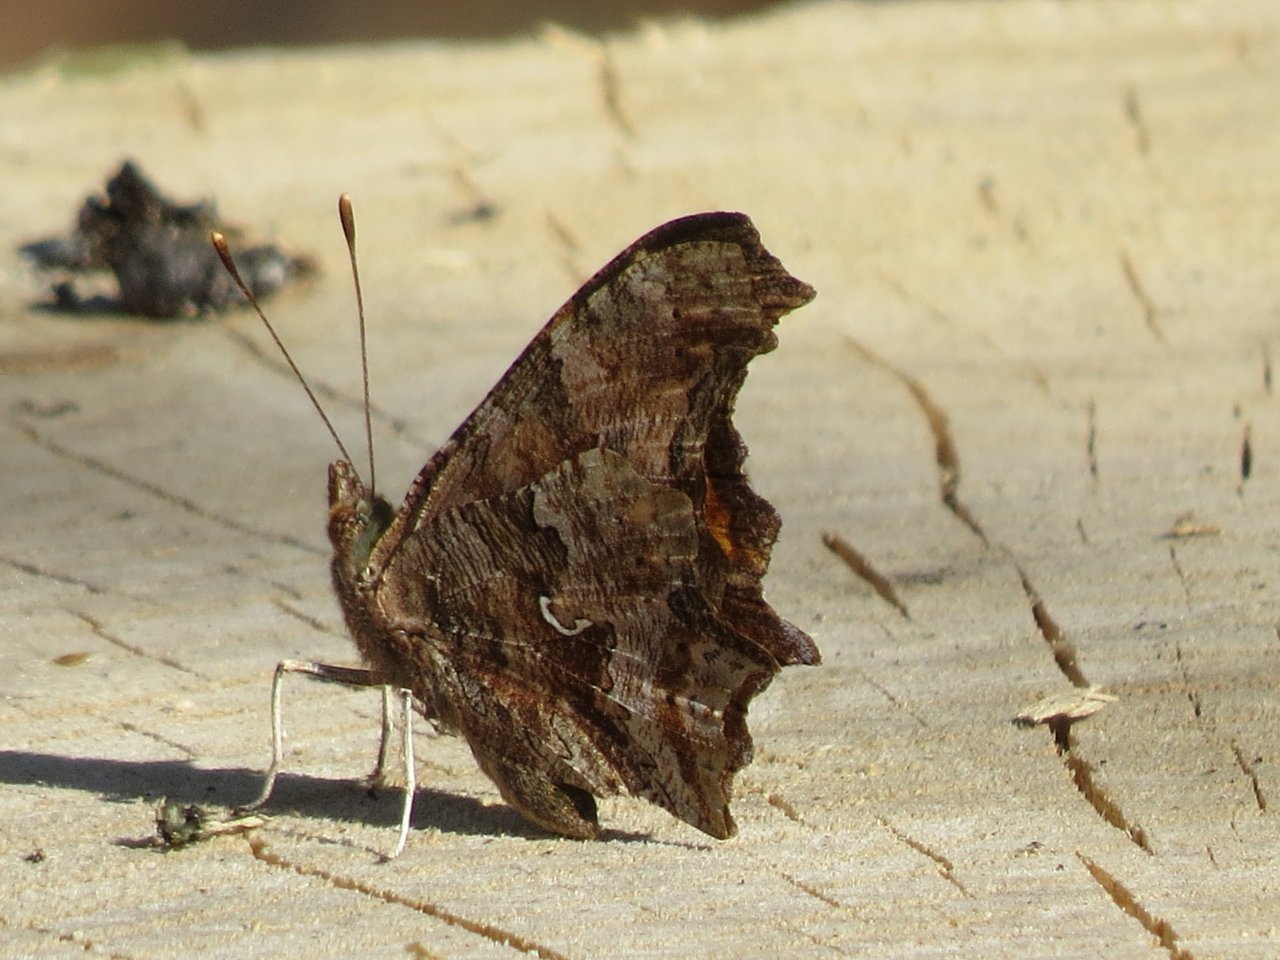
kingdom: Animalia
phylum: Arthropoda
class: Insecta
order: Lepidoptera
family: Nymphalidae
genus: Polygonia
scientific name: Polygonia comma
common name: Eastern Comma
